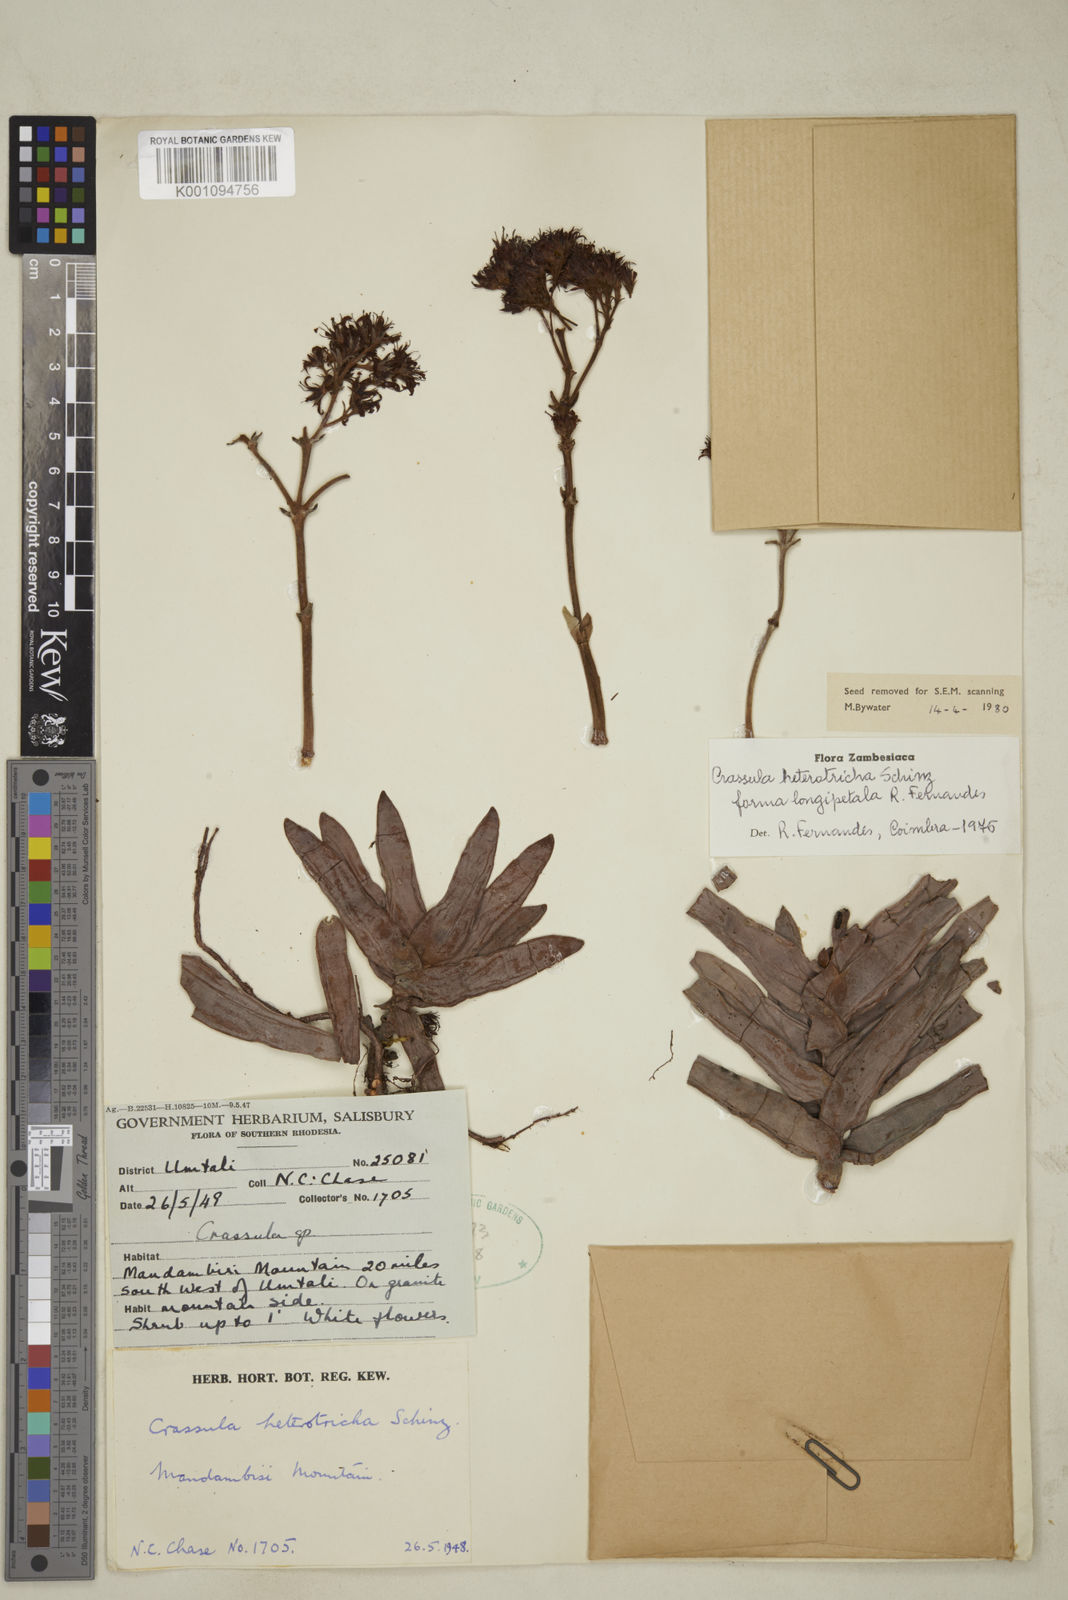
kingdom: Plantae
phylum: Tracheophyta
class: Magnoliopsida
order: Saxifragales
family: Crassulaceae
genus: Crassula
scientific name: Crassula perfoliata
